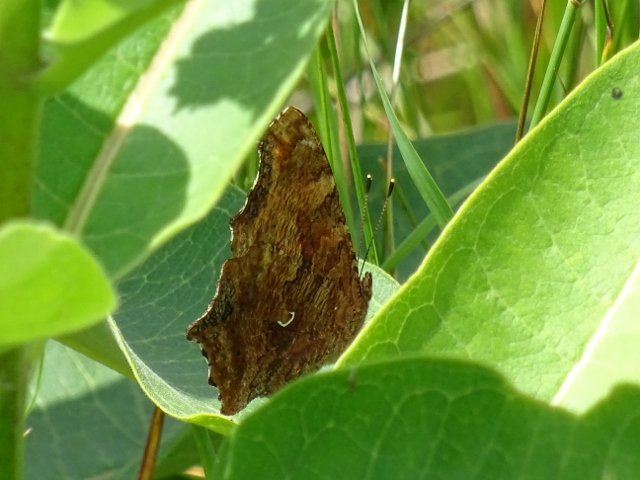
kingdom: Animalia
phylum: Arthropoda
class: Insecta
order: Lepidoptera
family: Nymphalidae
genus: Polygonia
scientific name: Polygonia comma
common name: Eastern Comma
